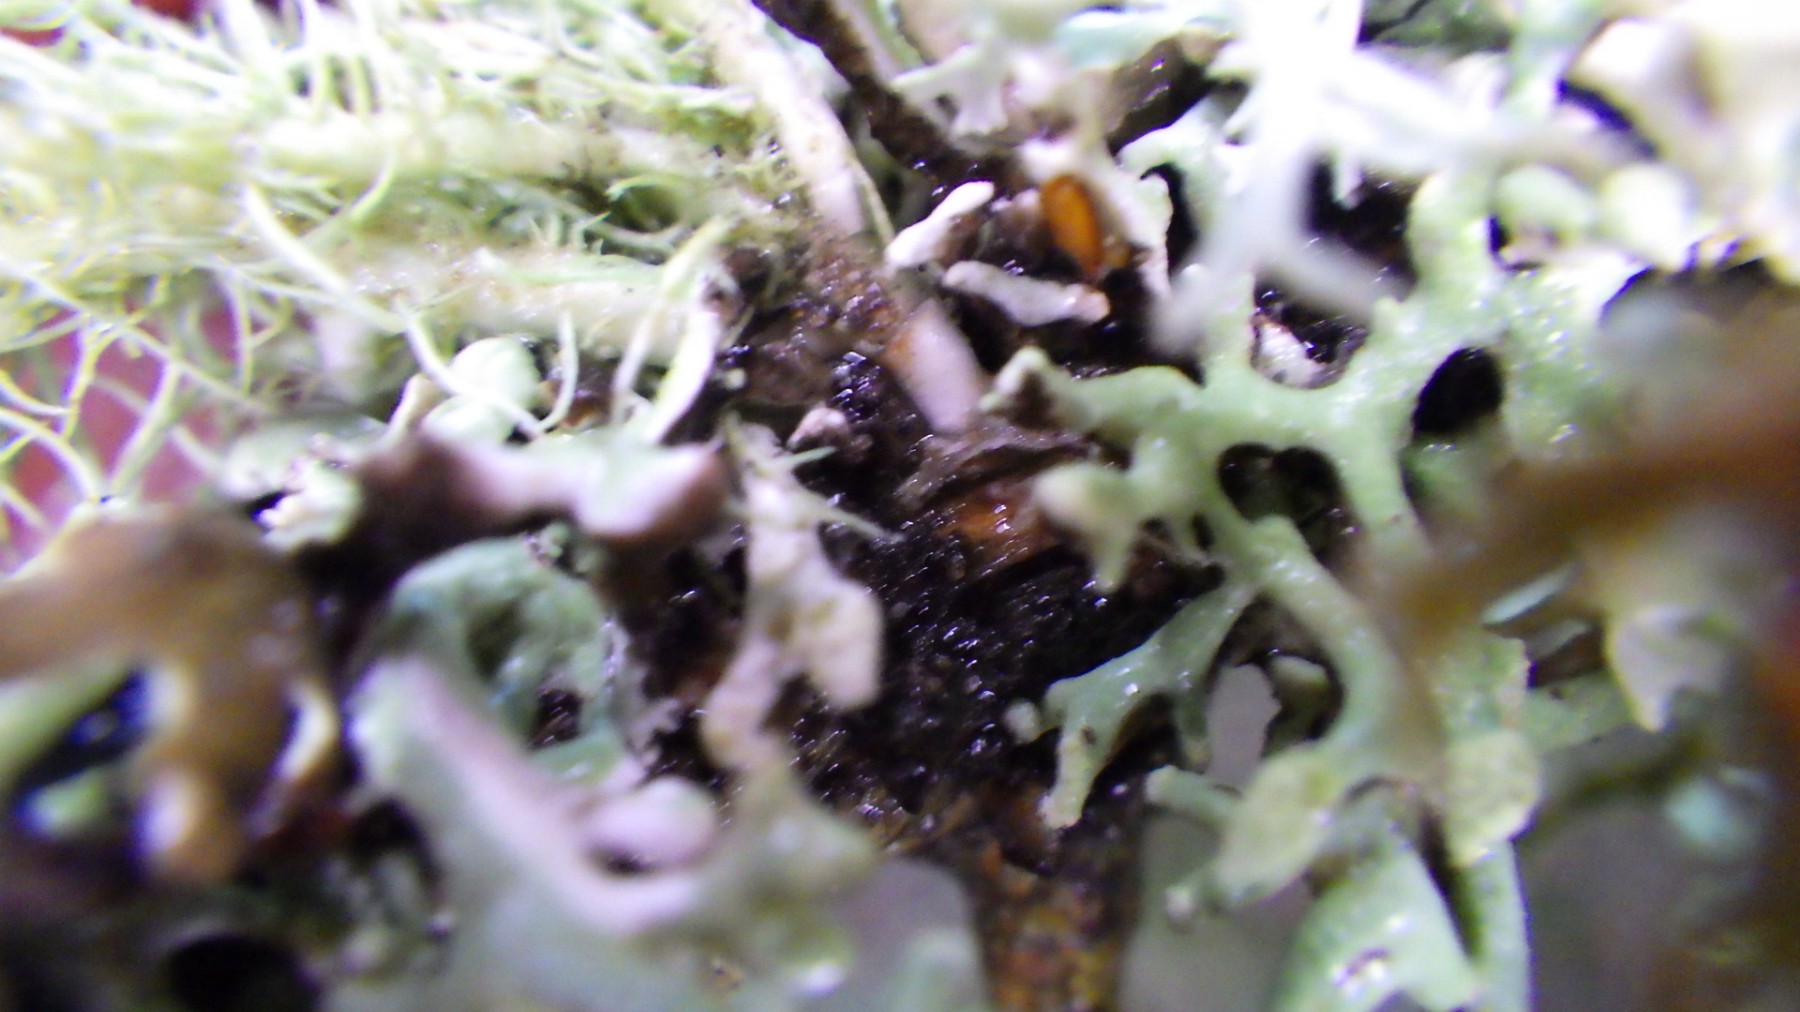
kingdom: Fungi
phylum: Ascomycota
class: Lecanoromycetes
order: Lecanorales
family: Parmeliaceae
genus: Usnea
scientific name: Usnea hirta
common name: liden skæglav
